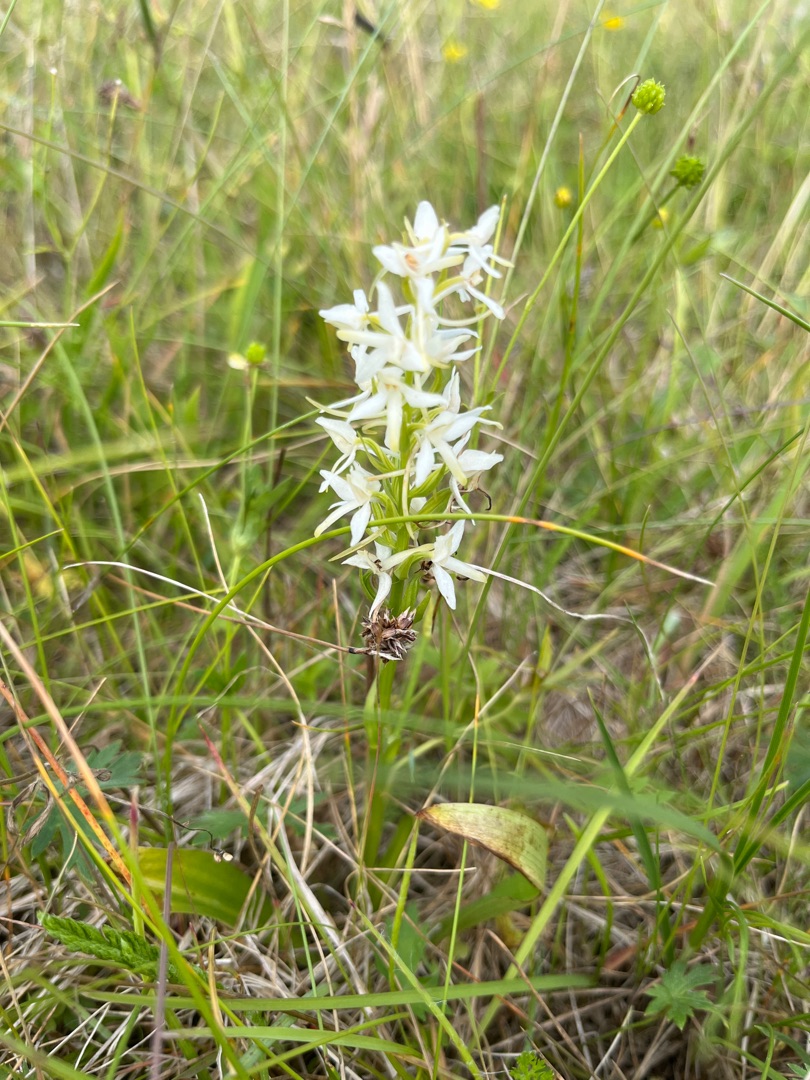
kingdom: Plantae
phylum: Tracheophyta
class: Liliopsida
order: Asparagales
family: Orchidaceae
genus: Platanthera
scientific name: Platanthera bifolia
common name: Bakke-gøgelilje
